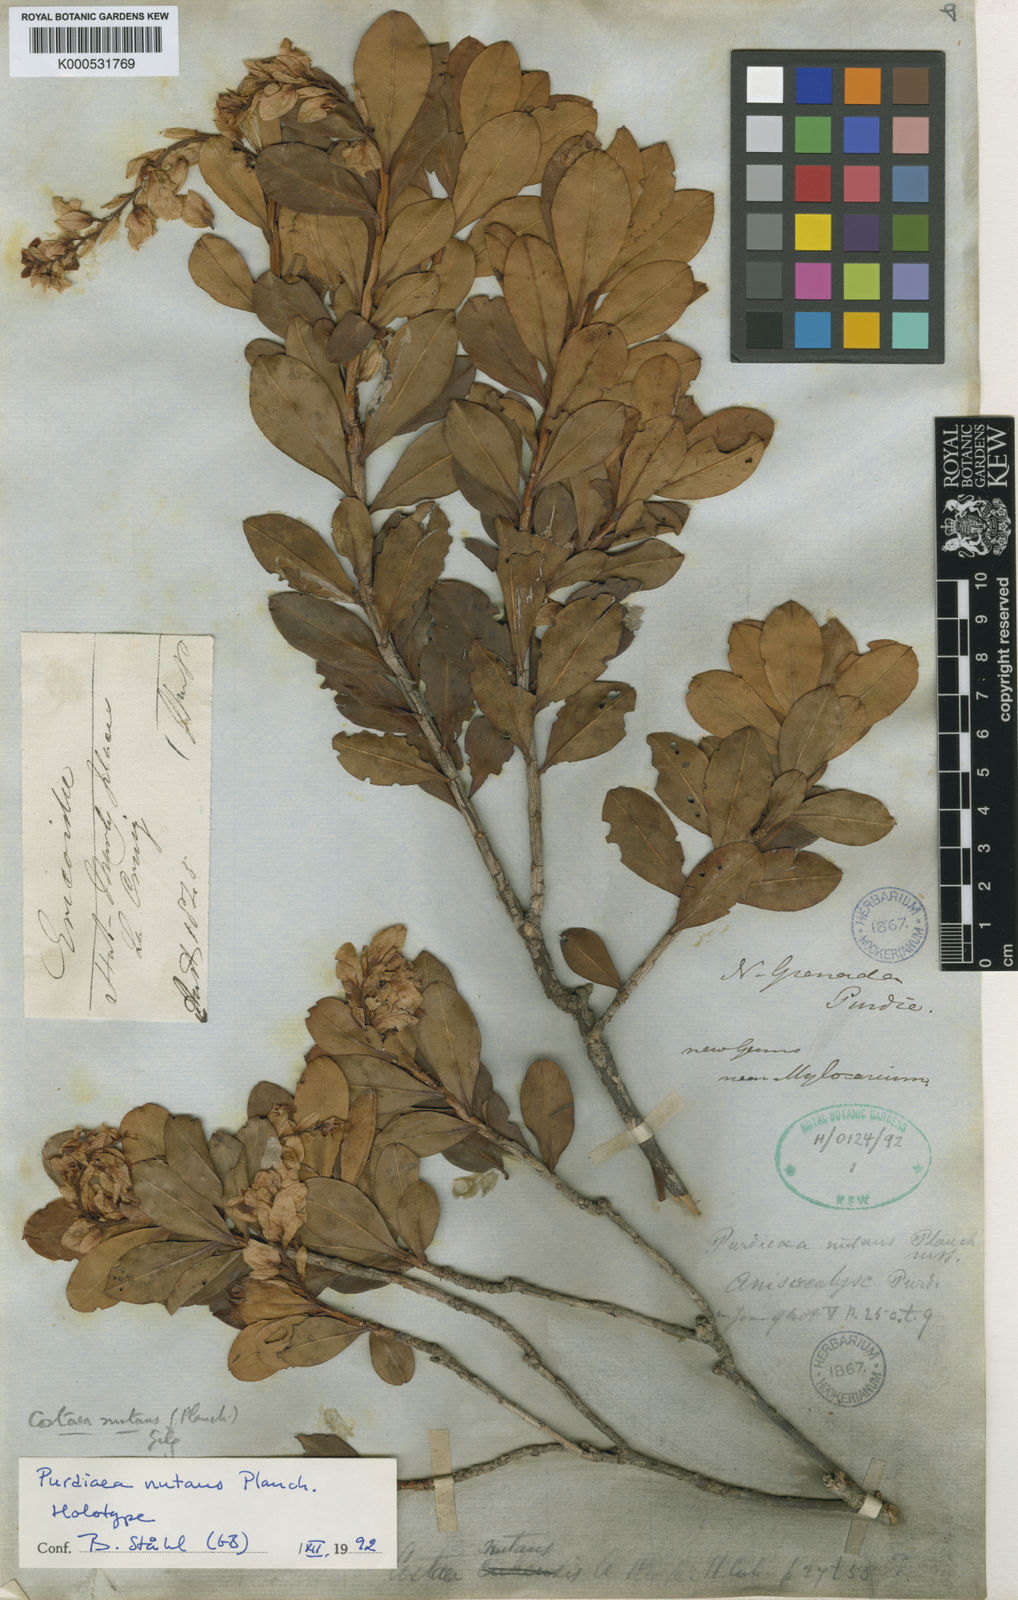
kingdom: Plantae
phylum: Tracheophyta
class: Magnoliopsida
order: Ericales
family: Clethraceae
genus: Purdiaea
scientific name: Purdiaea nutans
